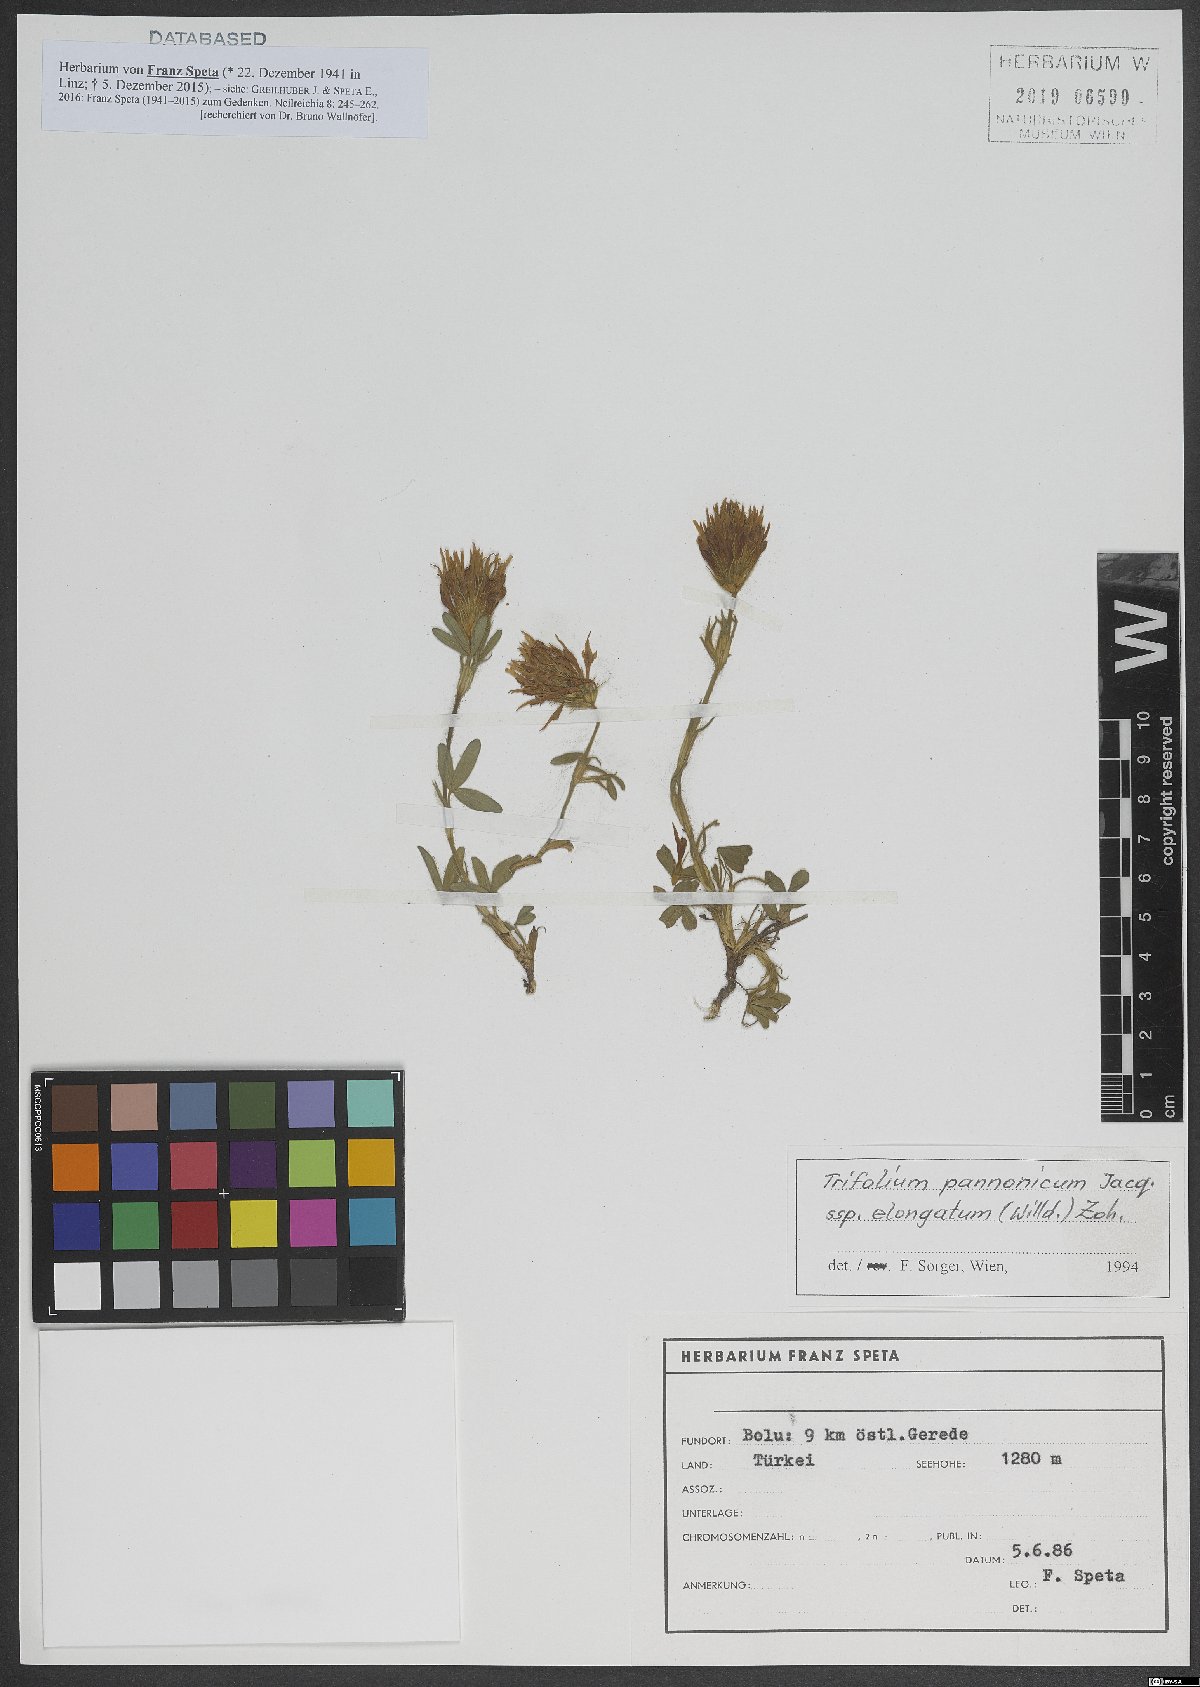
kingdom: Plantae
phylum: Tracheophyta
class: Magnoliopsida
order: Fabales
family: Fabaceae
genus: Trifolium
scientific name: Trifolium pannonicum
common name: Hungarian clover
